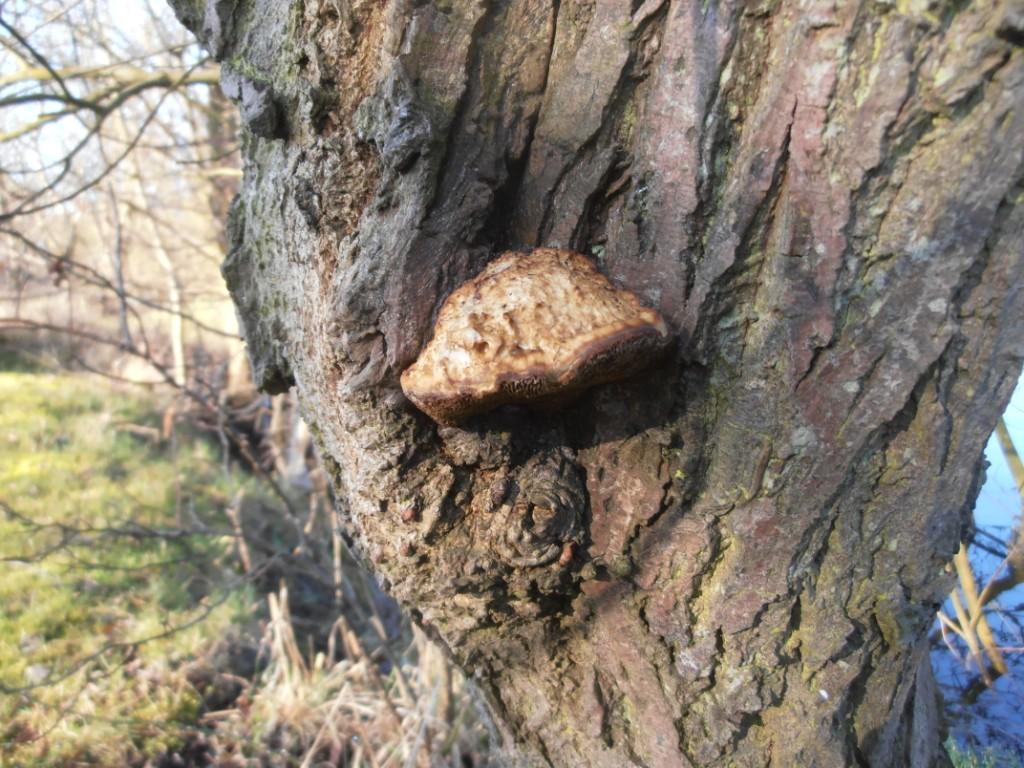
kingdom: Fungi
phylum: Basidiomycota
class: Agaricomycetes
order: Polyporales
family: Polyporaceae
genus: Daedaleopsis
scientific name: Daedaleopsis confragosa
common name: rødmende læderporesvamp
